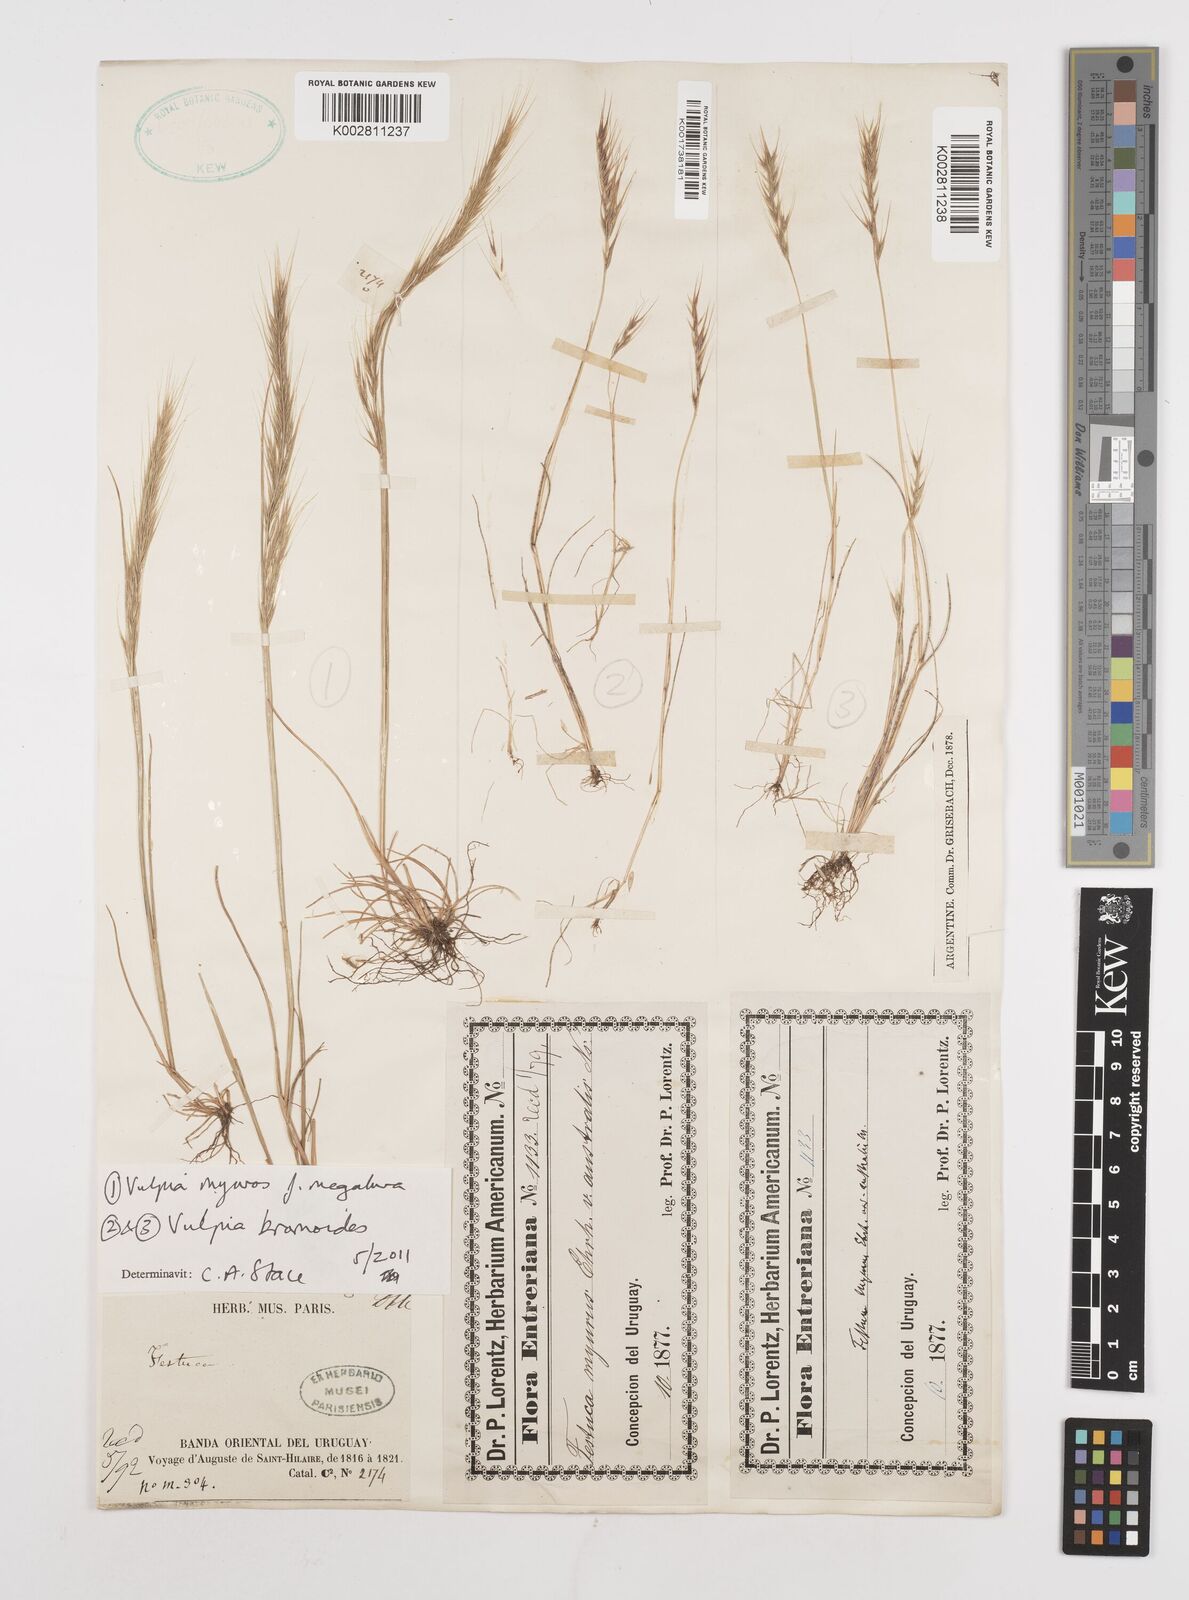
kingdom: Plantae
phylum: Tracheophyta
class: Liliopsida
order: Poales
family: Poaceae
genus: Festuca
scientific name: Festuca
